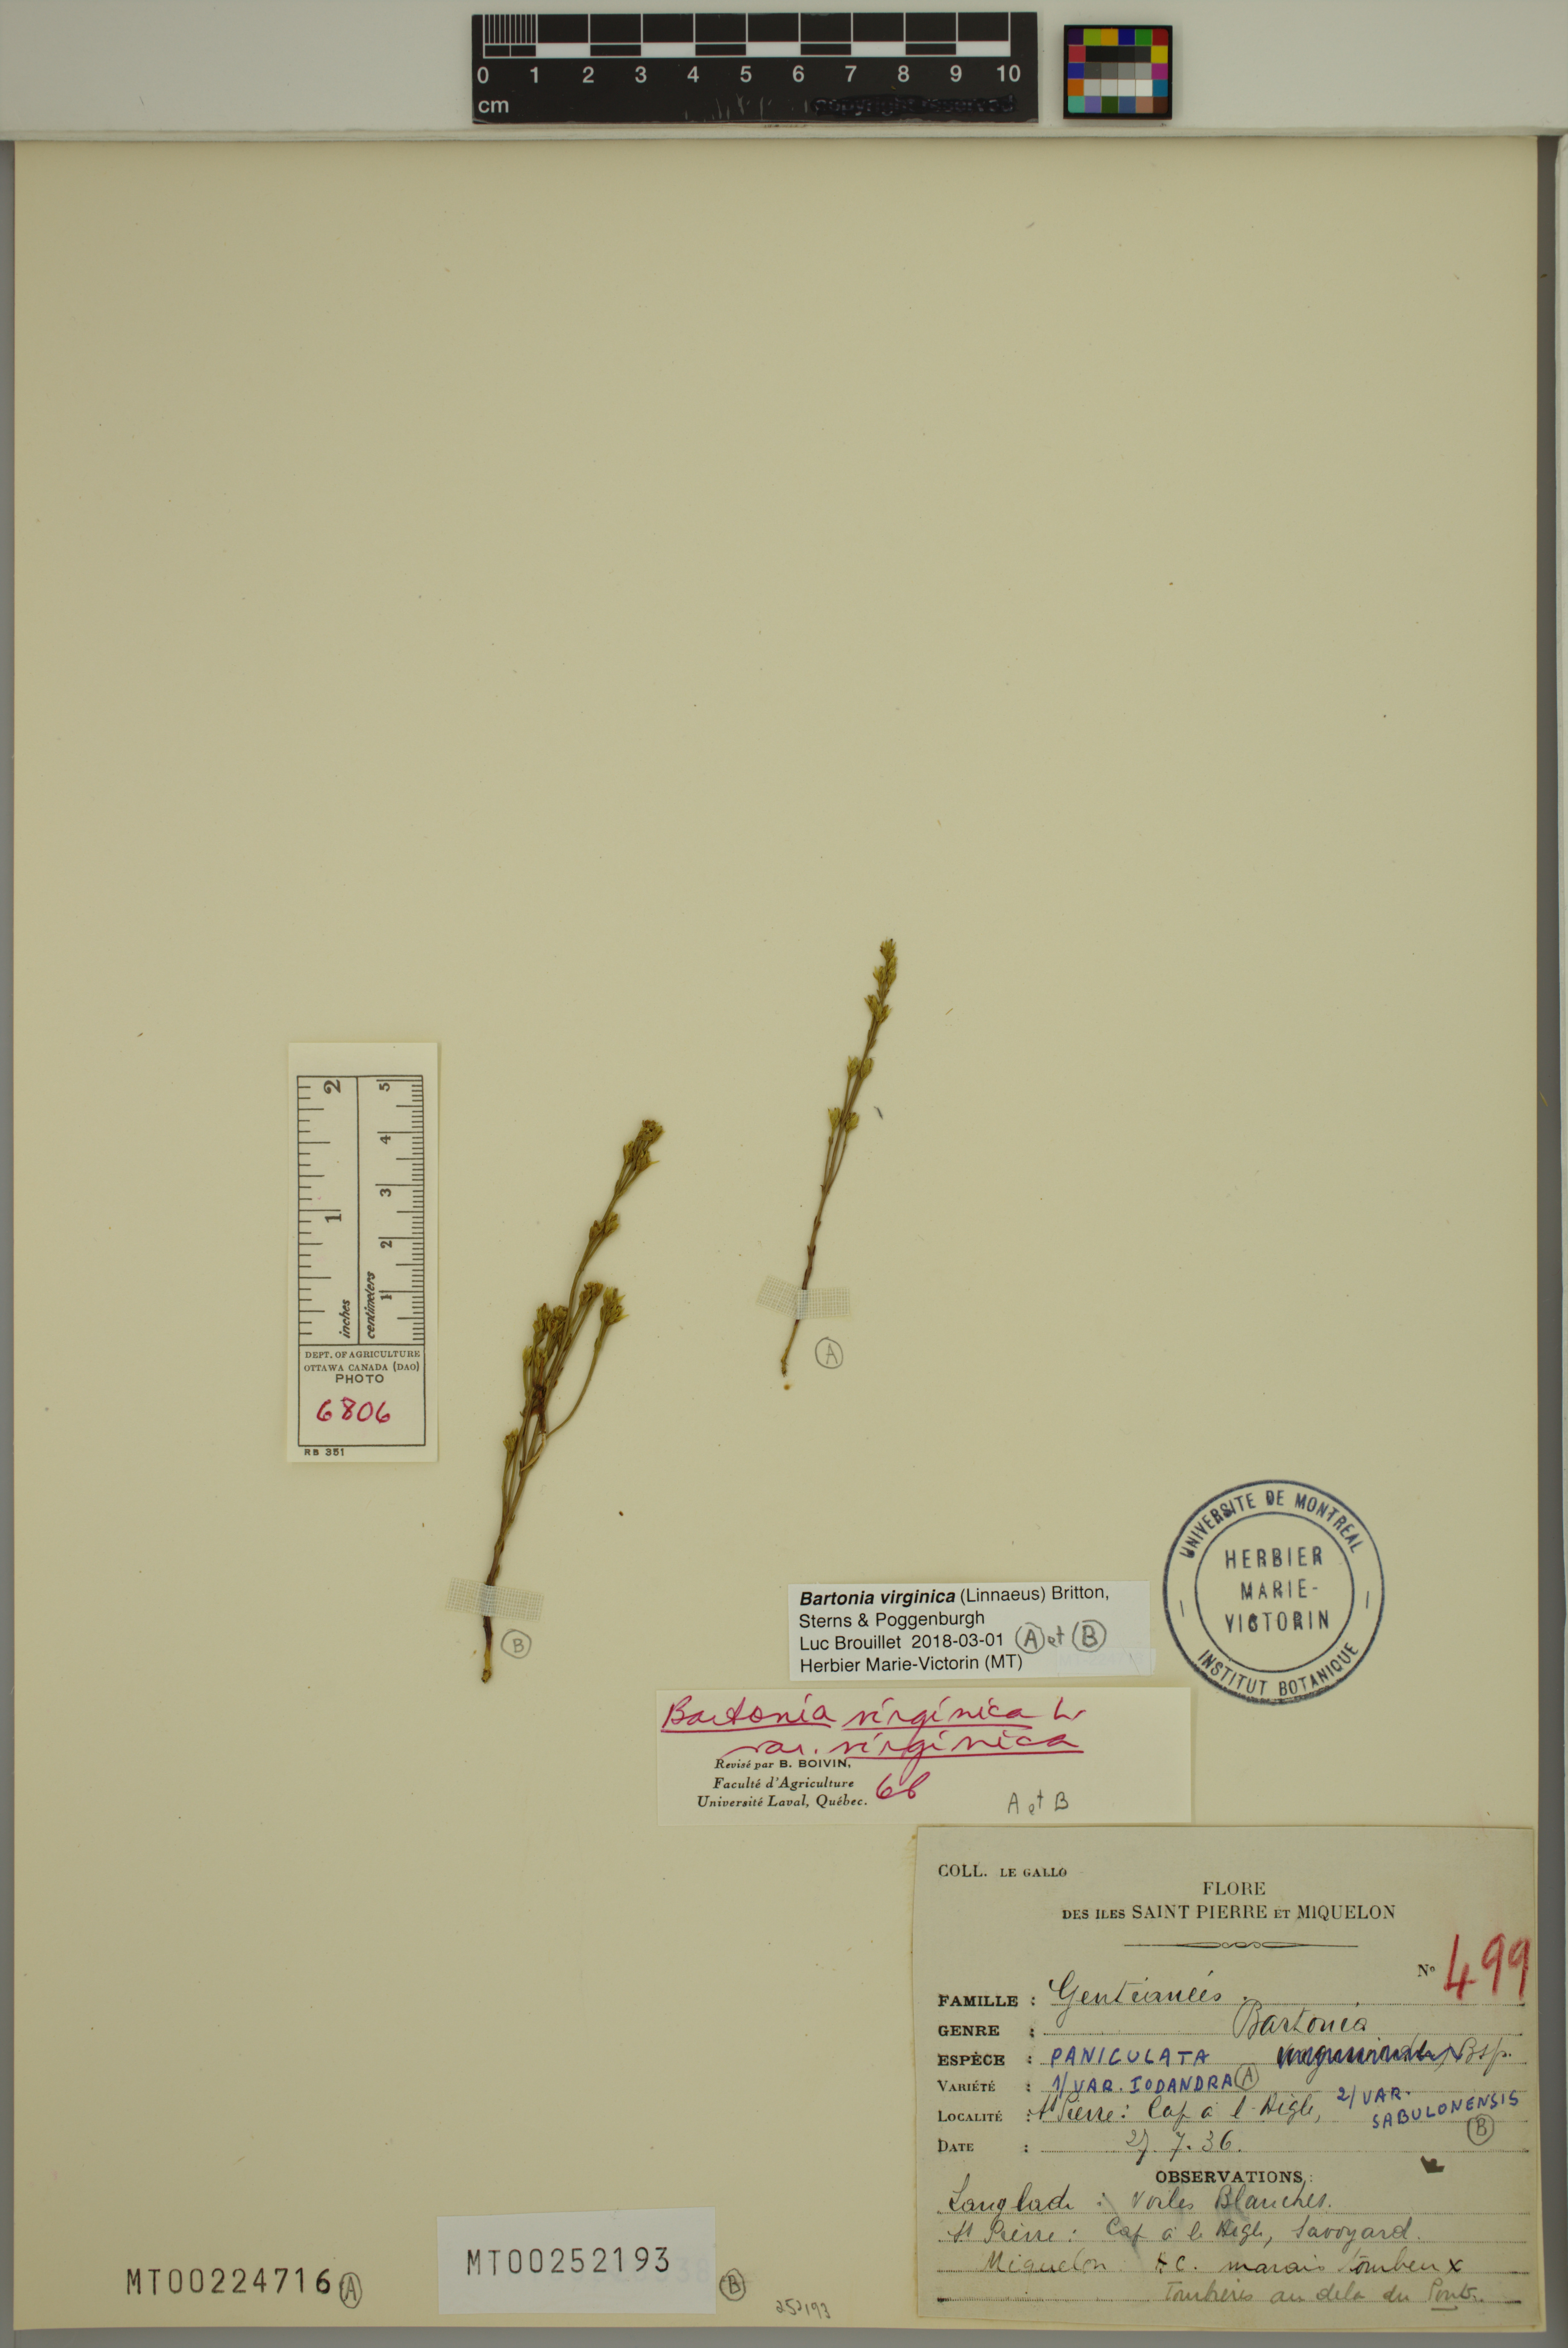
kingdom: Plantae
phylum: Tracheophyta
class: Magnoliopsida
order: Gentianales
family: Gentianaceae
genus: Bartonia
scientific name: Bartonia virginica
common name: Yellow bartonia
